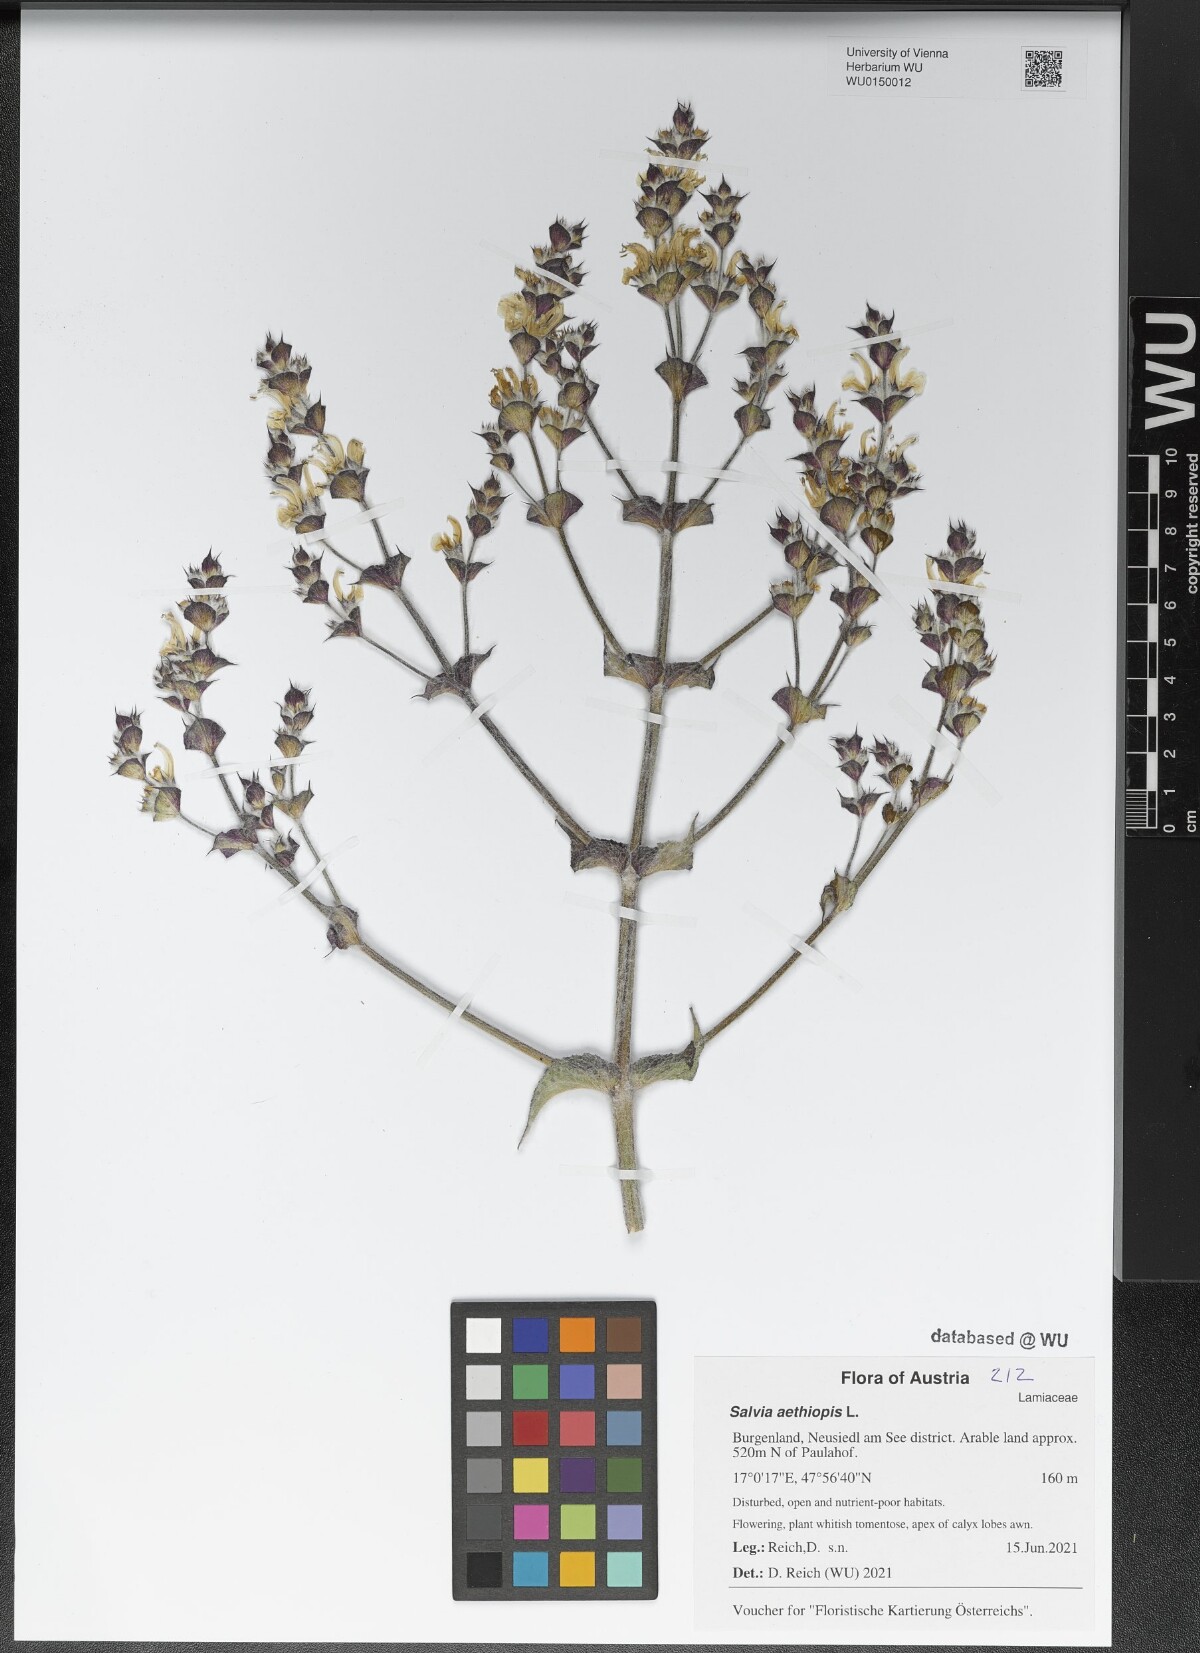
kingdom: Plantae
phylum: Tracheophyta
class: Magnoliopsida
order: Lamiales
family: Lamiaceae
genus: Salvia
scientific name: Salvia aethiopis
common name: Mediterranean sage
